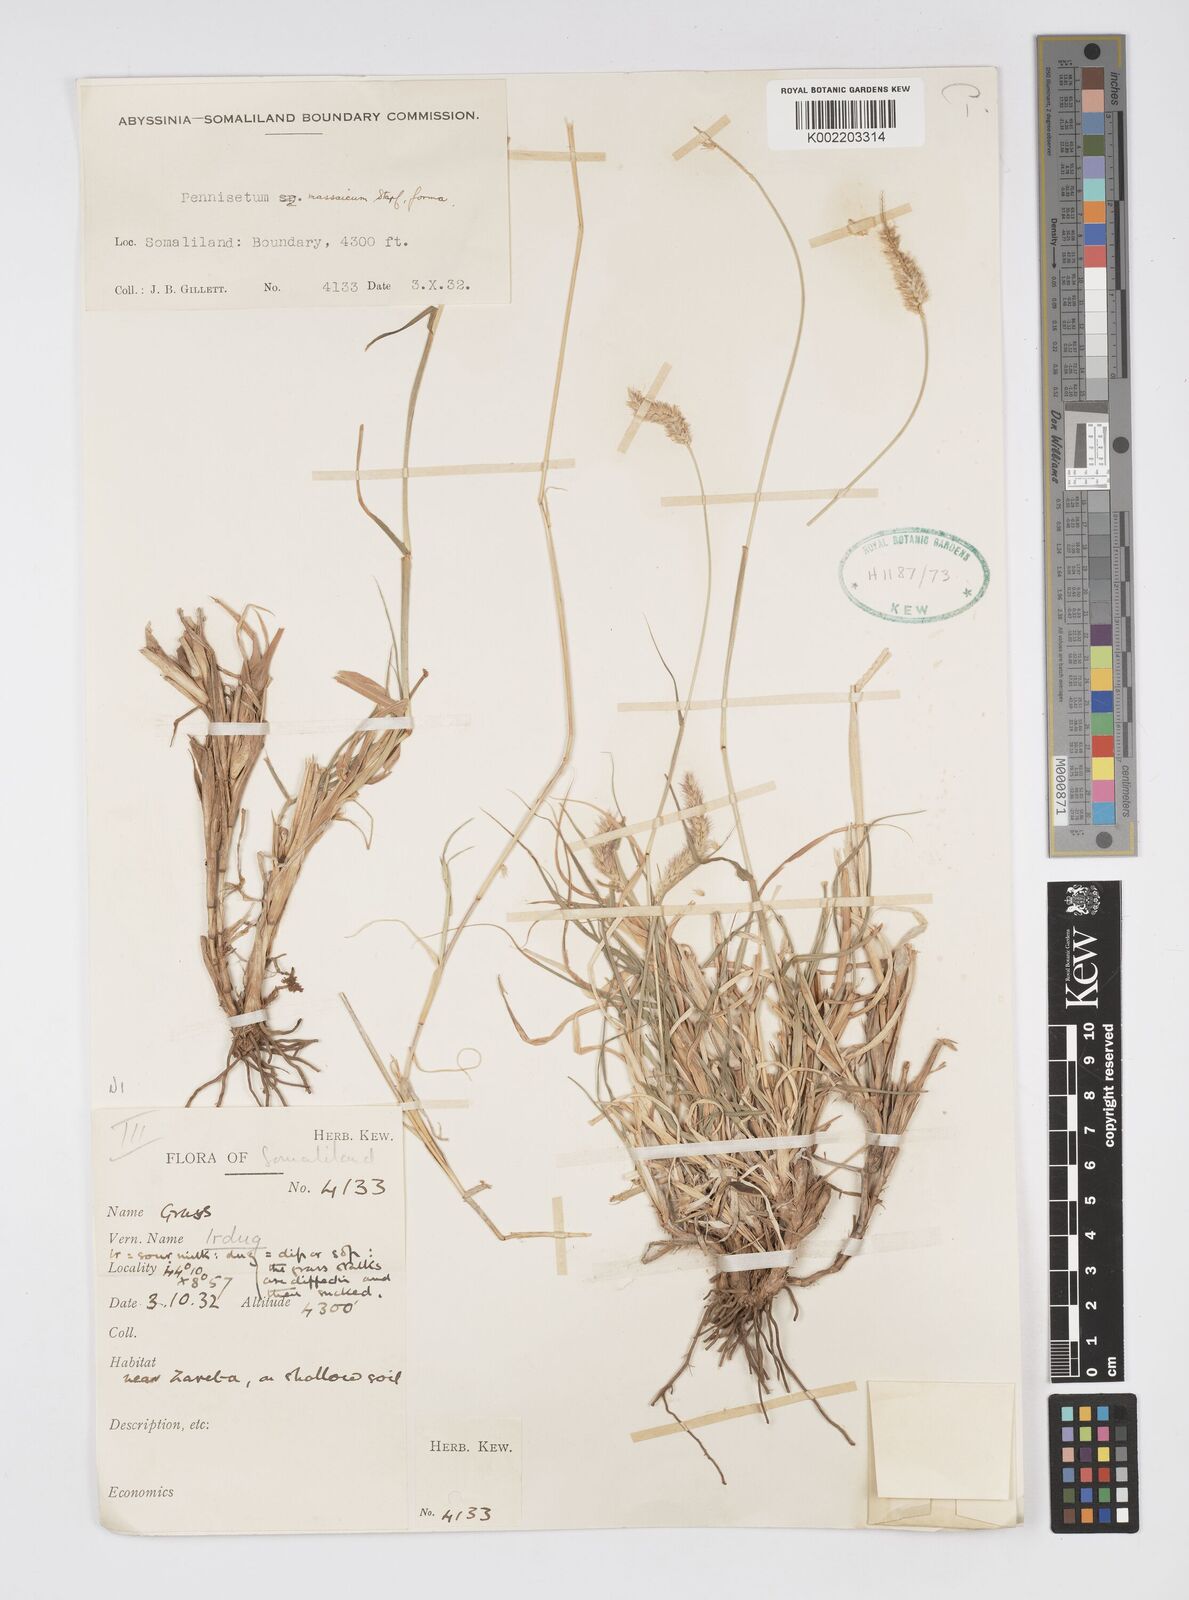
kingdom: Plantae
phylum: Tracheophyta
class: Liliopsida
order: Poales
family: Poaceae
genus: Cenchrus
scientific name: Cenchrus massaicus
